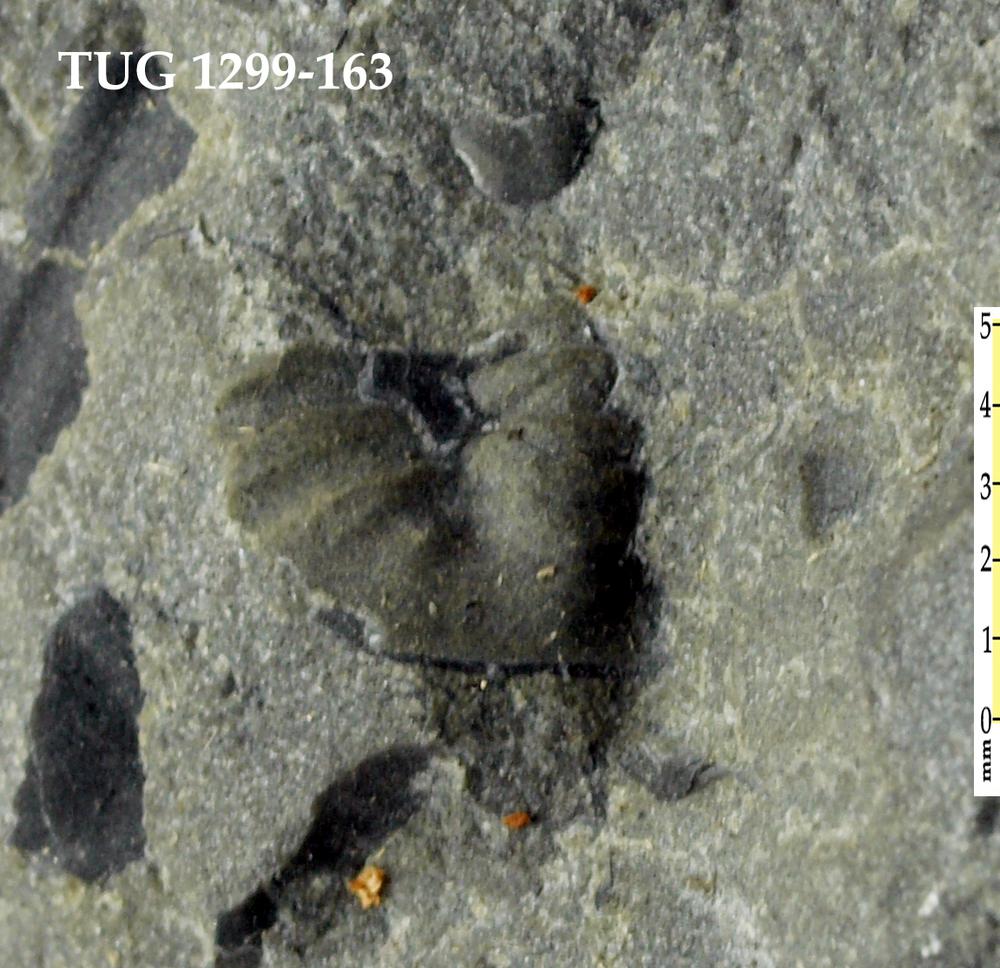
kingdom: Animalia
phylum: Arthropoda
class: Trilobita
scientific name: Trilobita
